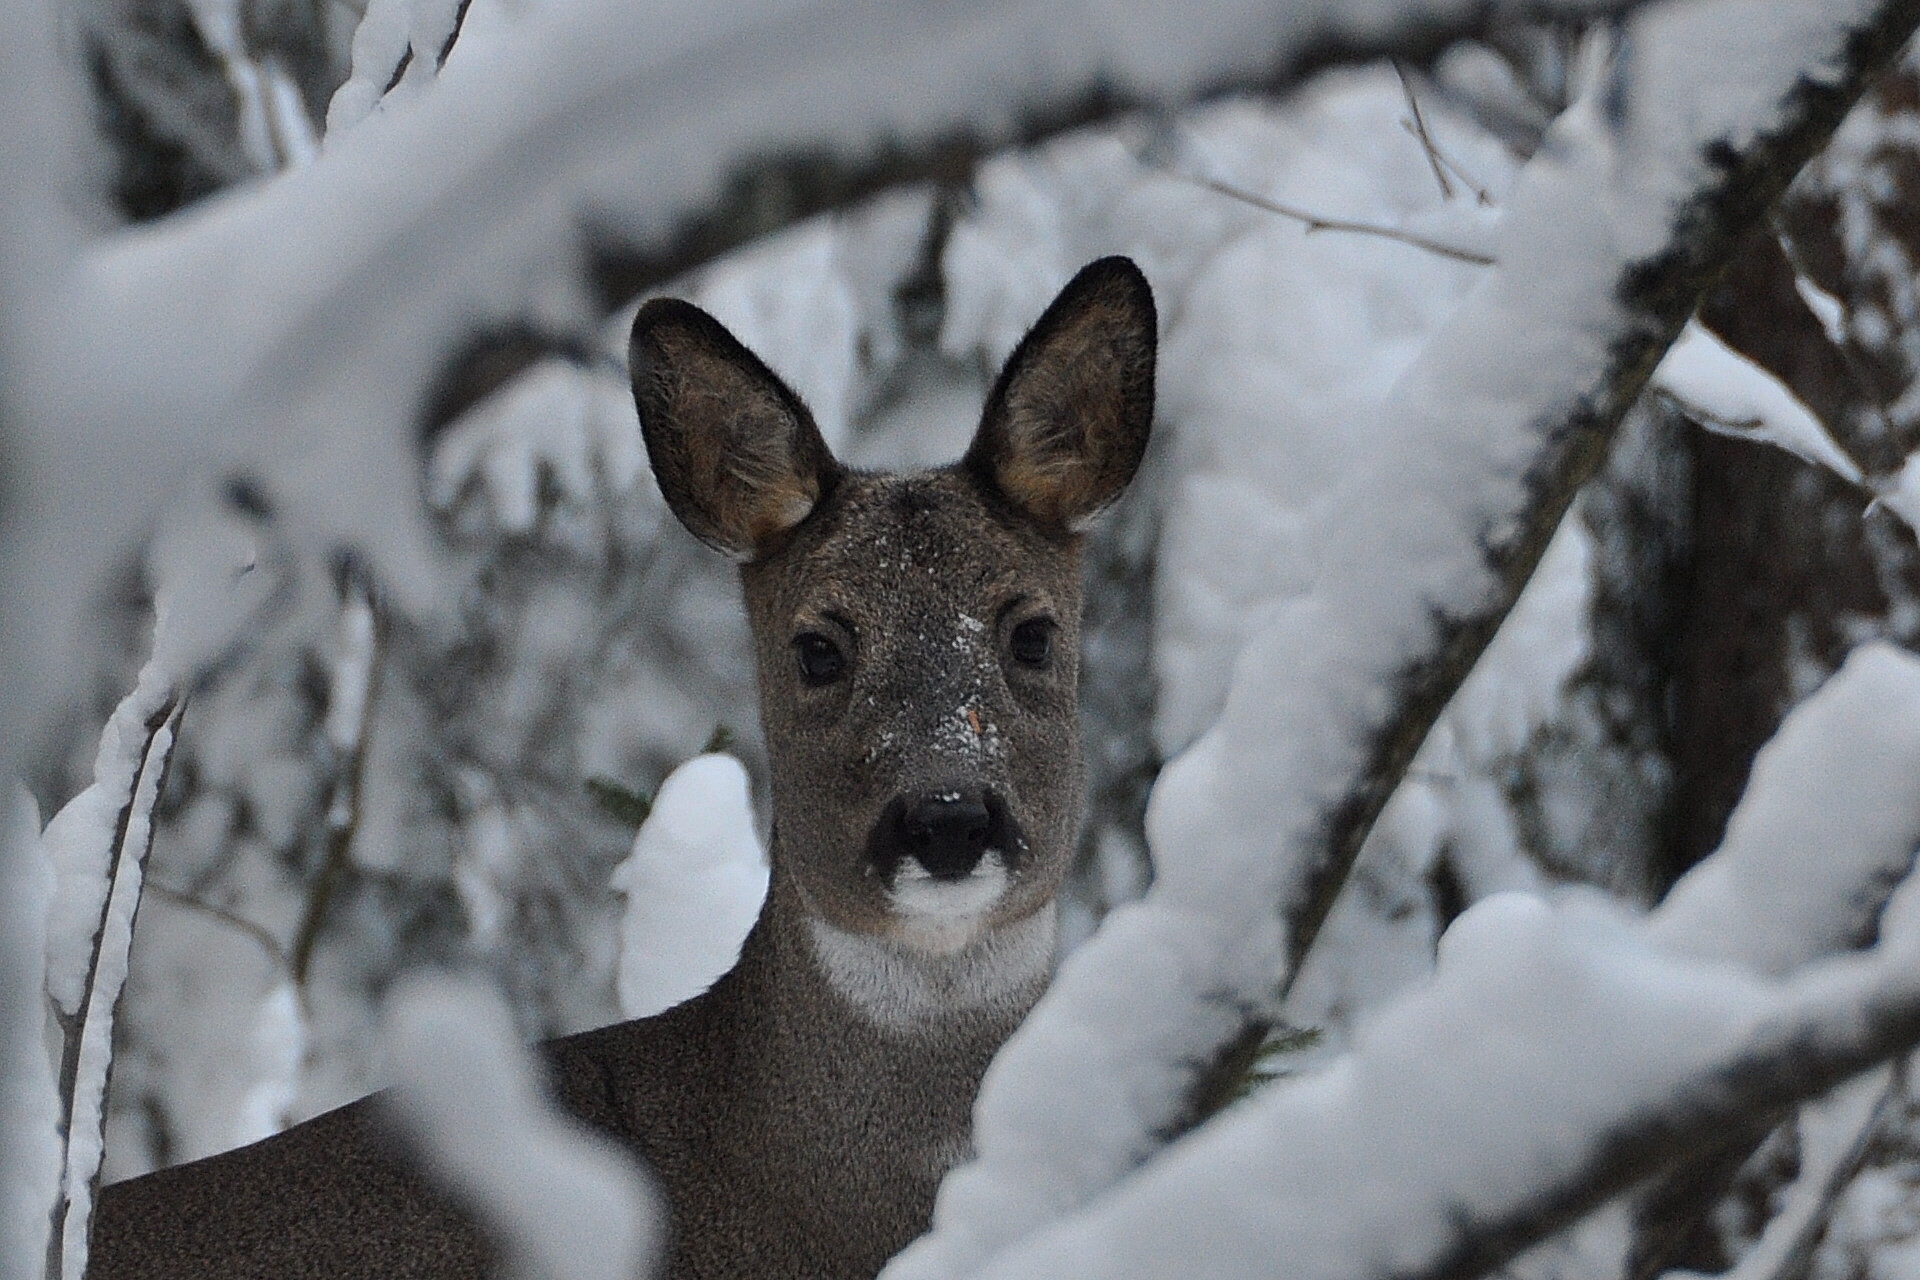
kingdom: Animalia
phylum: Chordata
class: Mammalia
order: Artiodactyla
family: Cervidae
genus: Capreolus
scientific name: Capreolus capreolus
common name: Western roe deer
